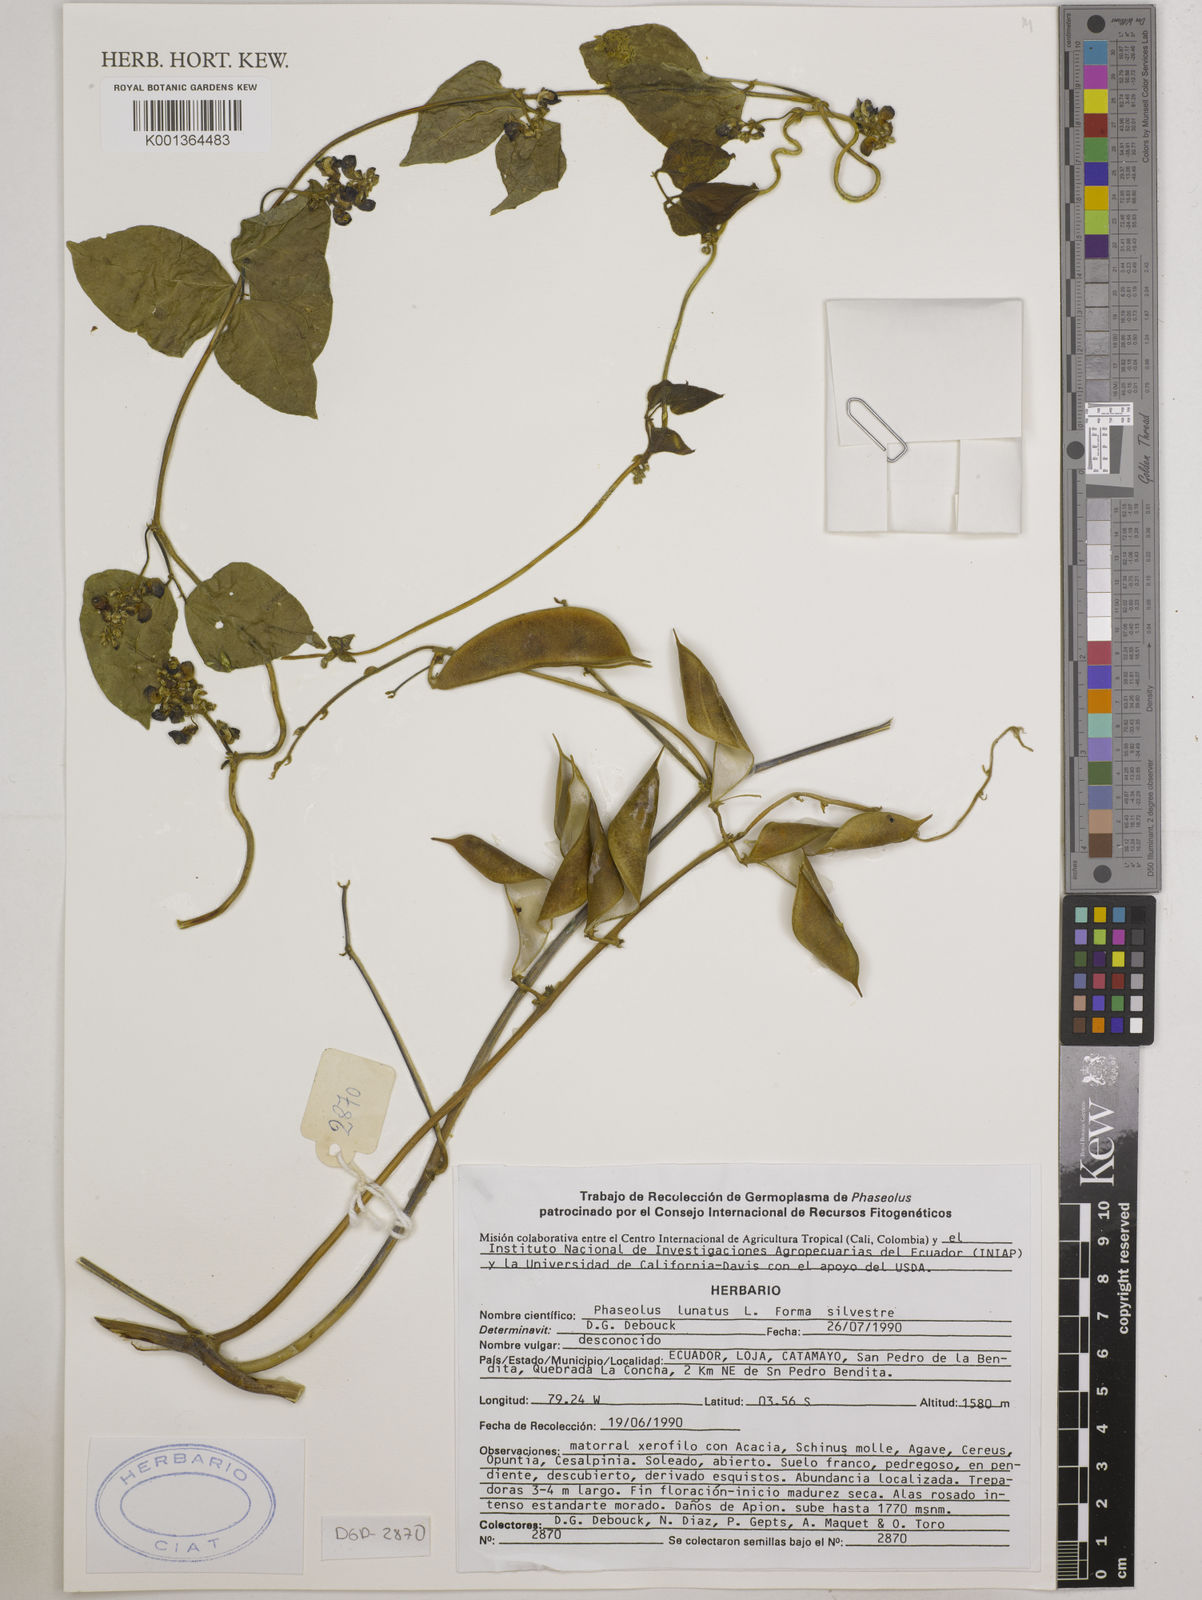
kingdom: Plantae
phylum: Tracheophyta
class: Magnoliopsida
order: Fabales
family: Fabaceae
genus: Phaseolus
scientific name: Phaseolus lunatus
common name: Sieva bean
